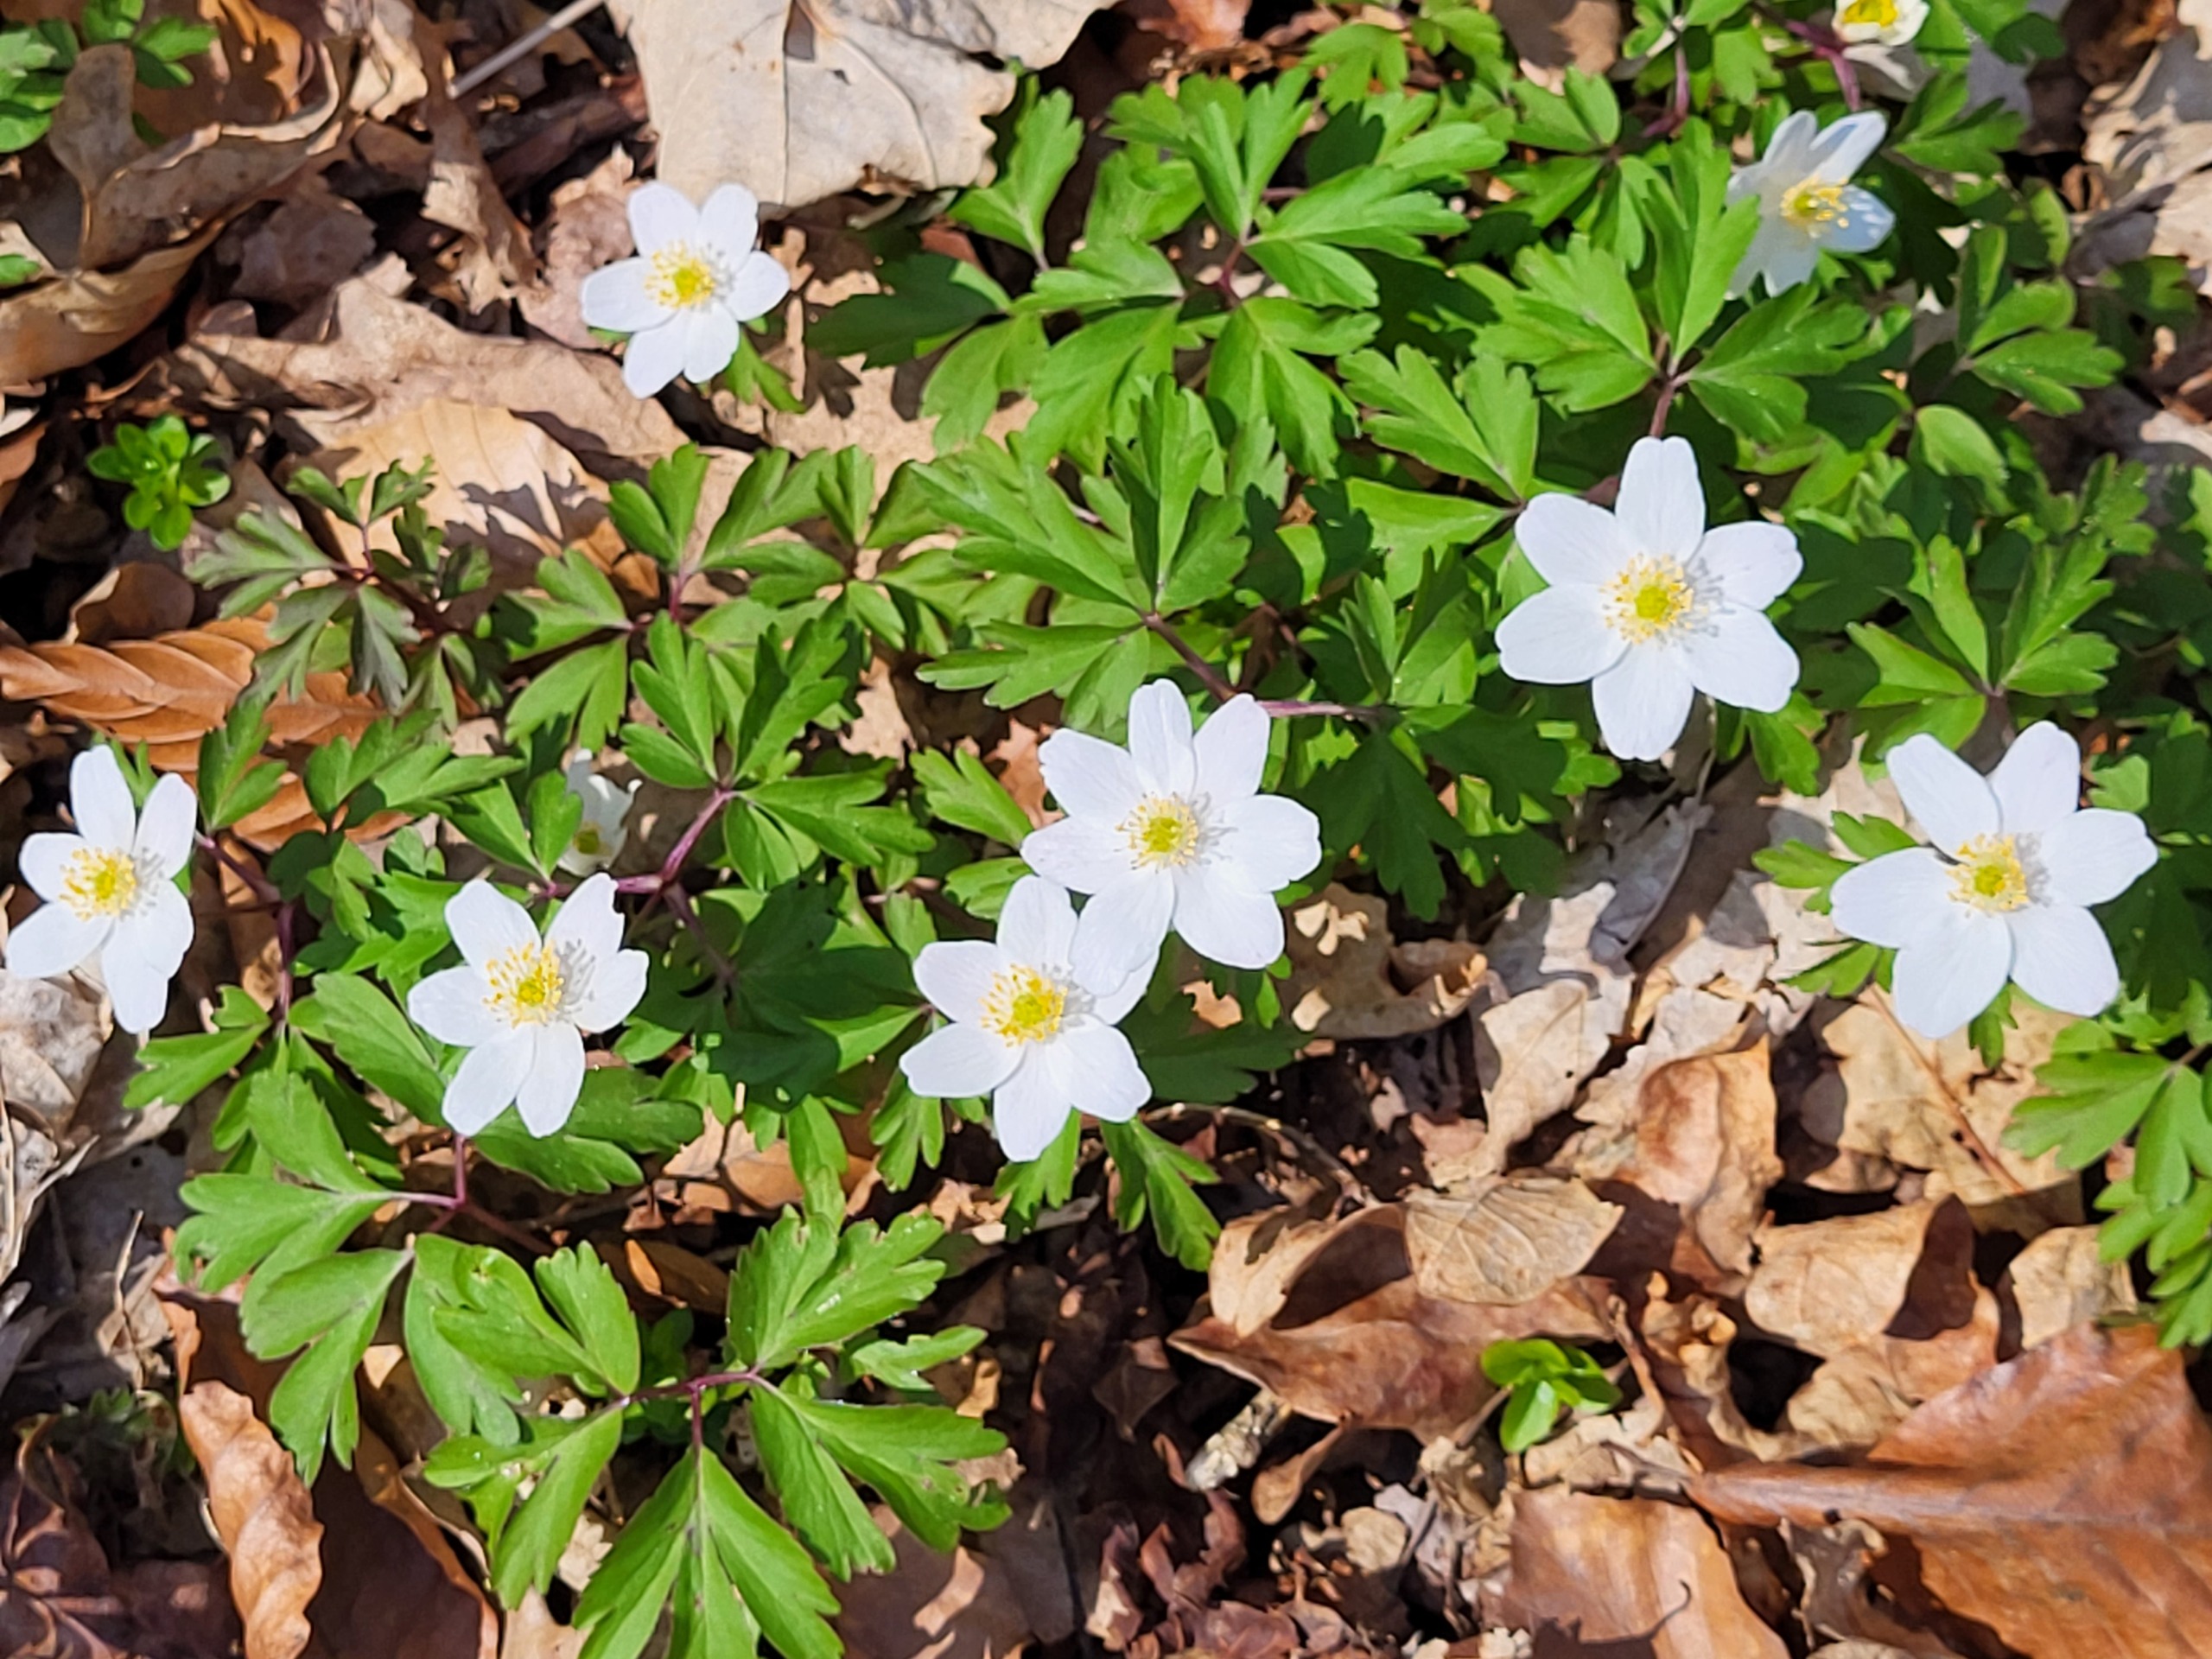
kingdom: Plantae
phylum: Tracheophyta
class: Magnoliopsida
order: Ranunculales
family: Ranunculaceae
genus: Anemone
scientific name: Anemone nemorosa
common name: Hvid anemone
